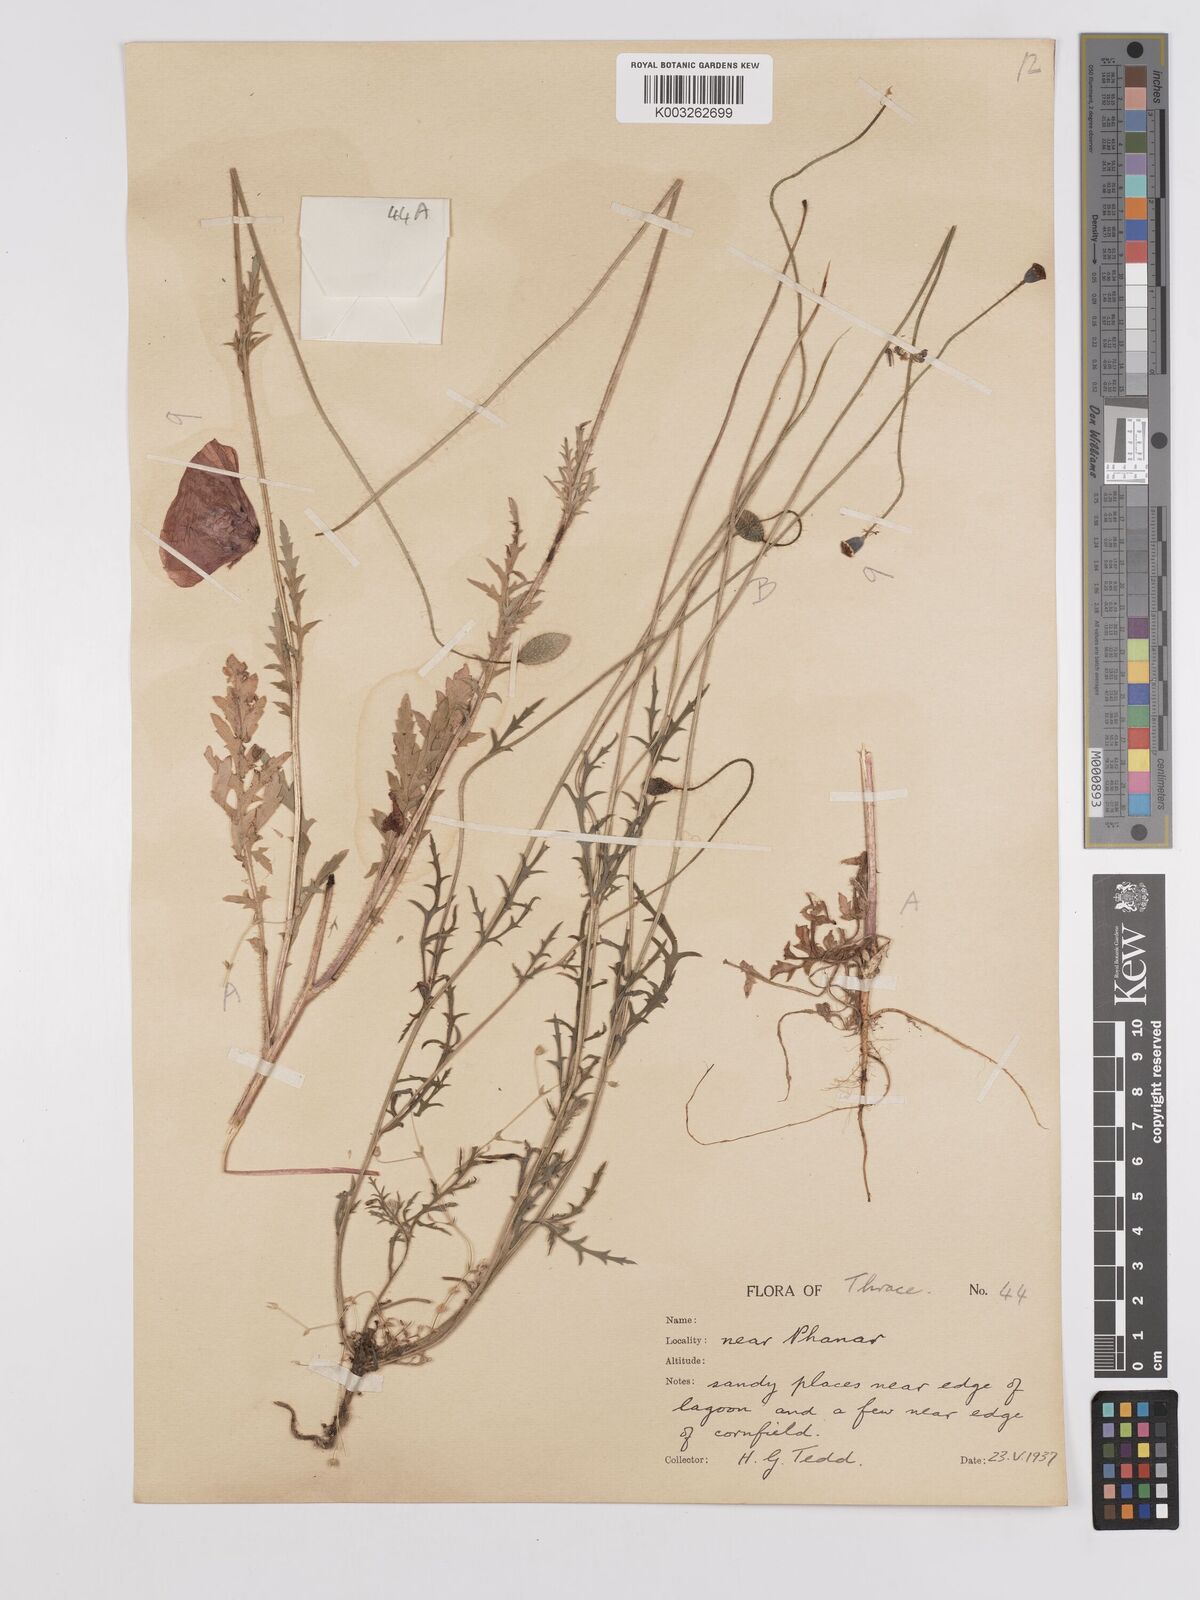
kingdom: Plantae
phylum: Tracheophyta
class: Magnoliopsida
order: Ranunculales
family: Papaveraceae
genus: Papaver
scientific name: Papaver
